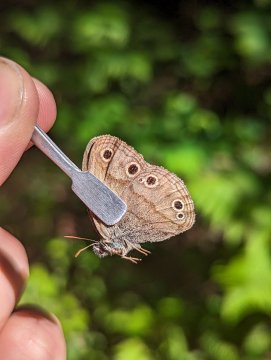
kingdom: Animalia
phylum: Arthropoda
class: Insecta
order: Lepidoptera
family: Nymphalidae
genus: Euptychia
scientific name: Euptychia cymela
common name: Little Wood Satyr
